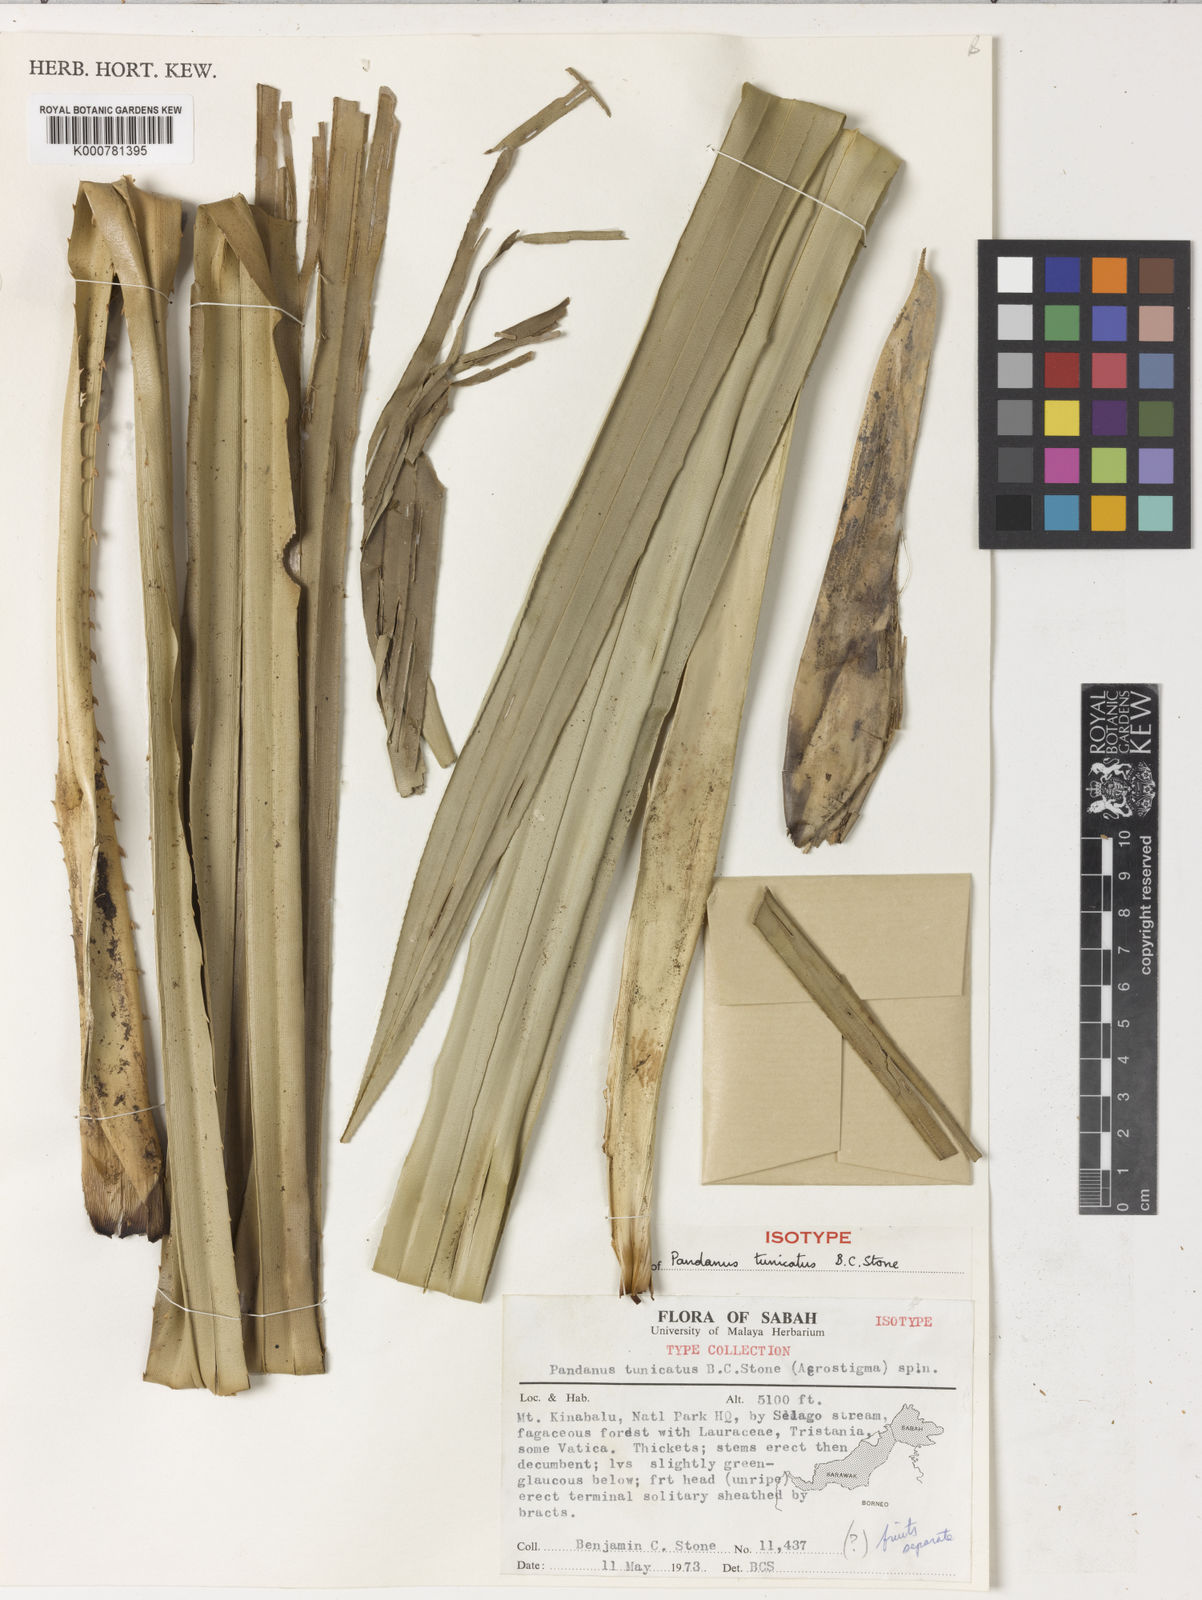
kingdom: Plantae
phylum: Tracheophyta
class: Liliopsida
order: Pandanales
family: Pandanaceae
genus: Benstonea
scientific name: Benstonea tunicata
